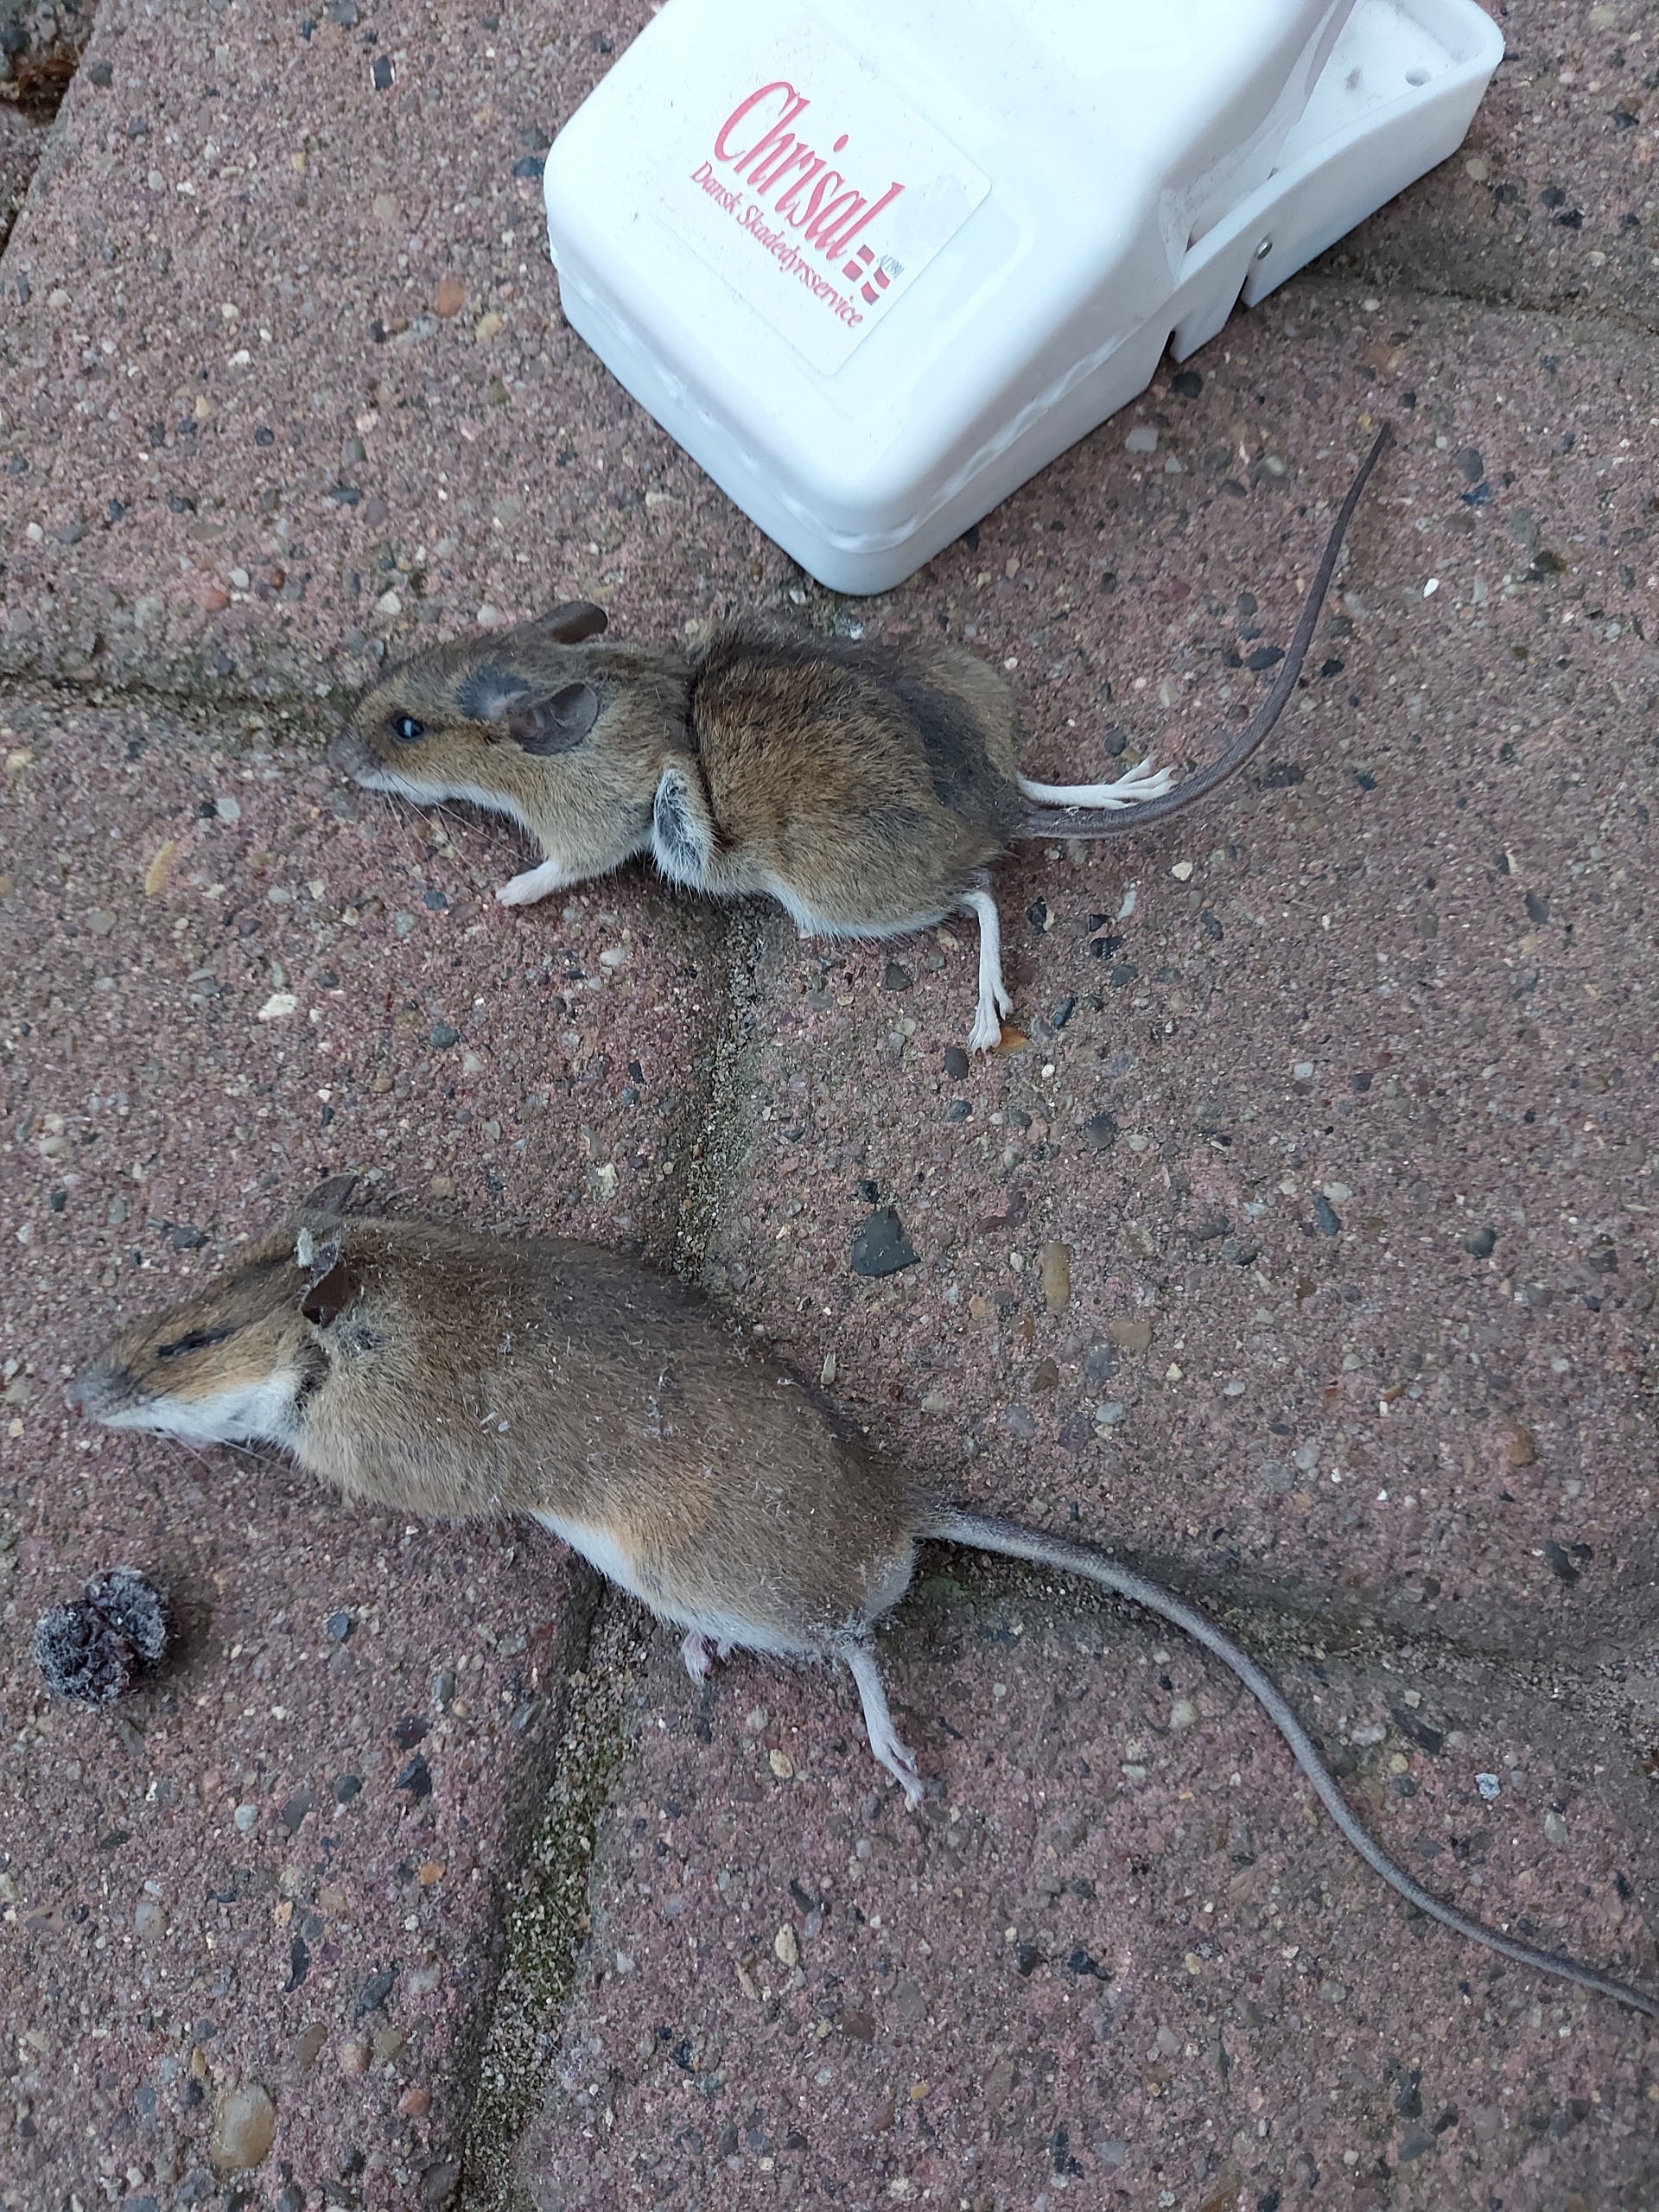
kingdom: Animalia
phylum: Chordata
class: Mammalia
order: Rodentia
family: Muridae
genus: Apodemus
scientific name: Apodemus flavicollis
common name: Halsbåndmus
